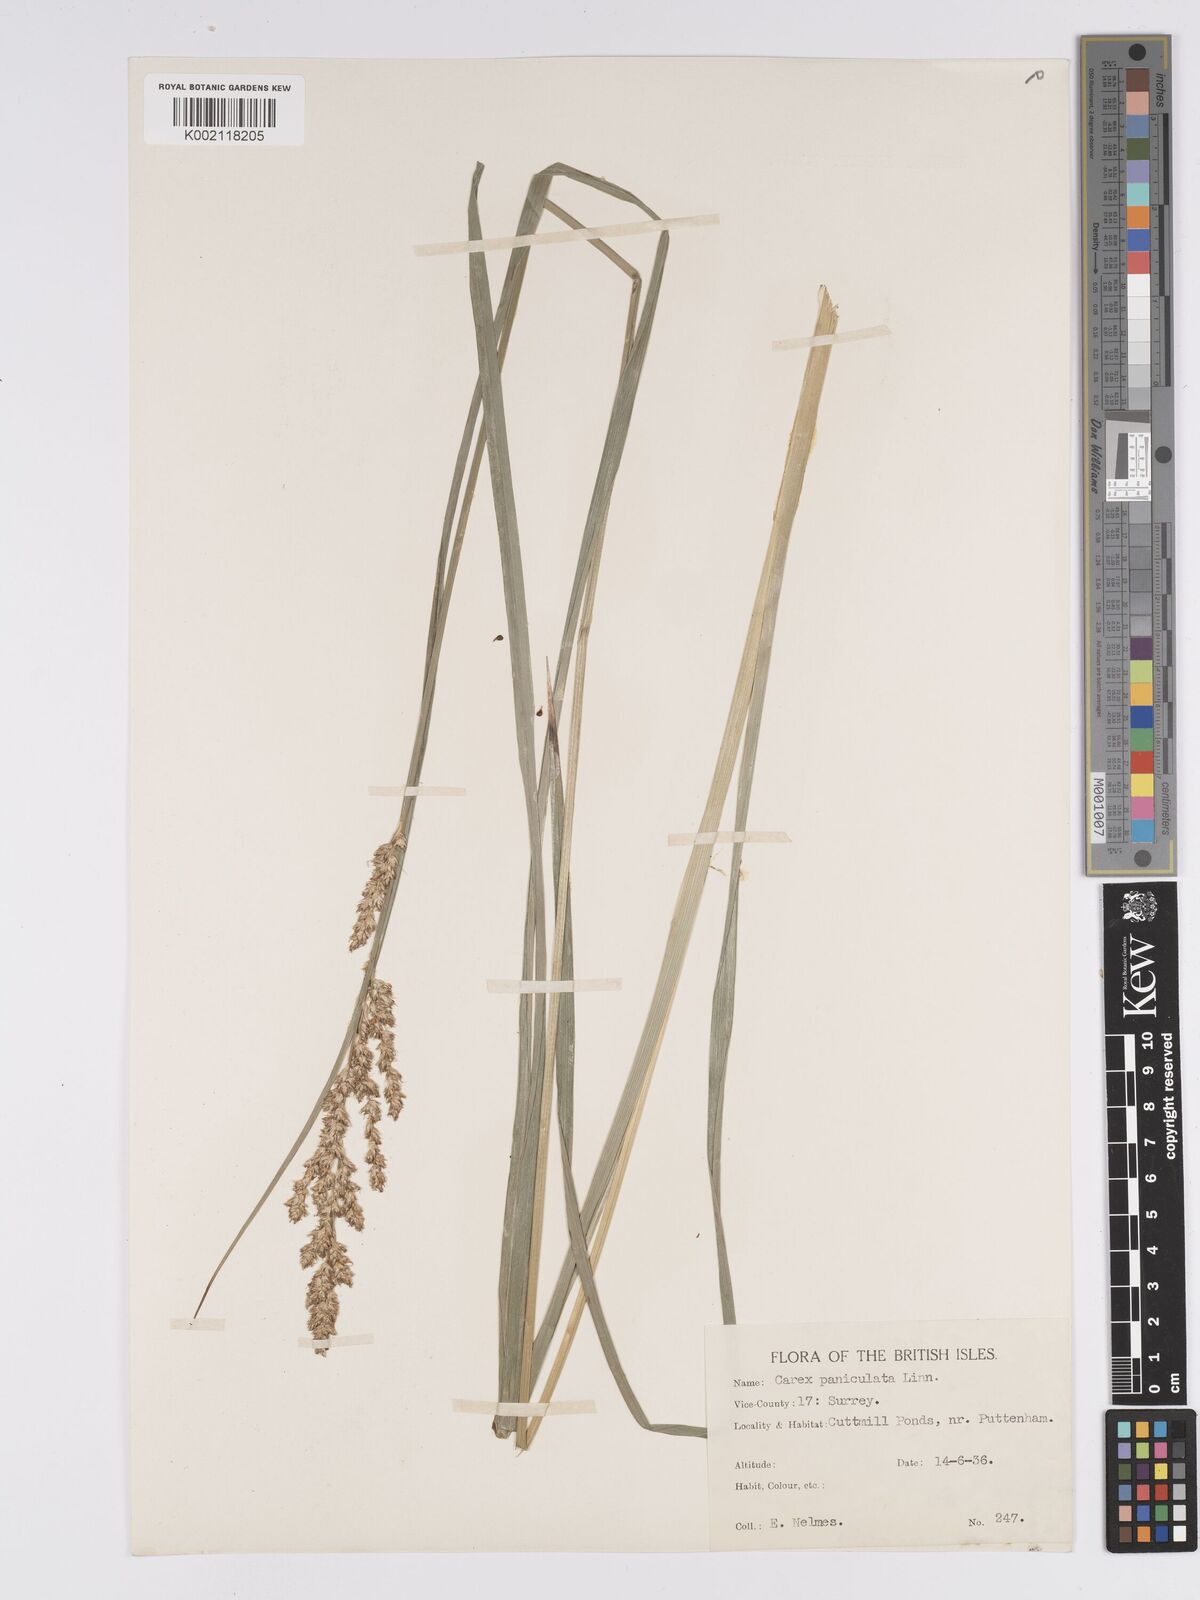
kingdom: Plantae
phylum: Tracheophyta
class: Liliopsida
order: Poales
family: Cyperaceae
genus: Carex
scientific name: Carex paniculata
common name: Greater tussock-sedge
